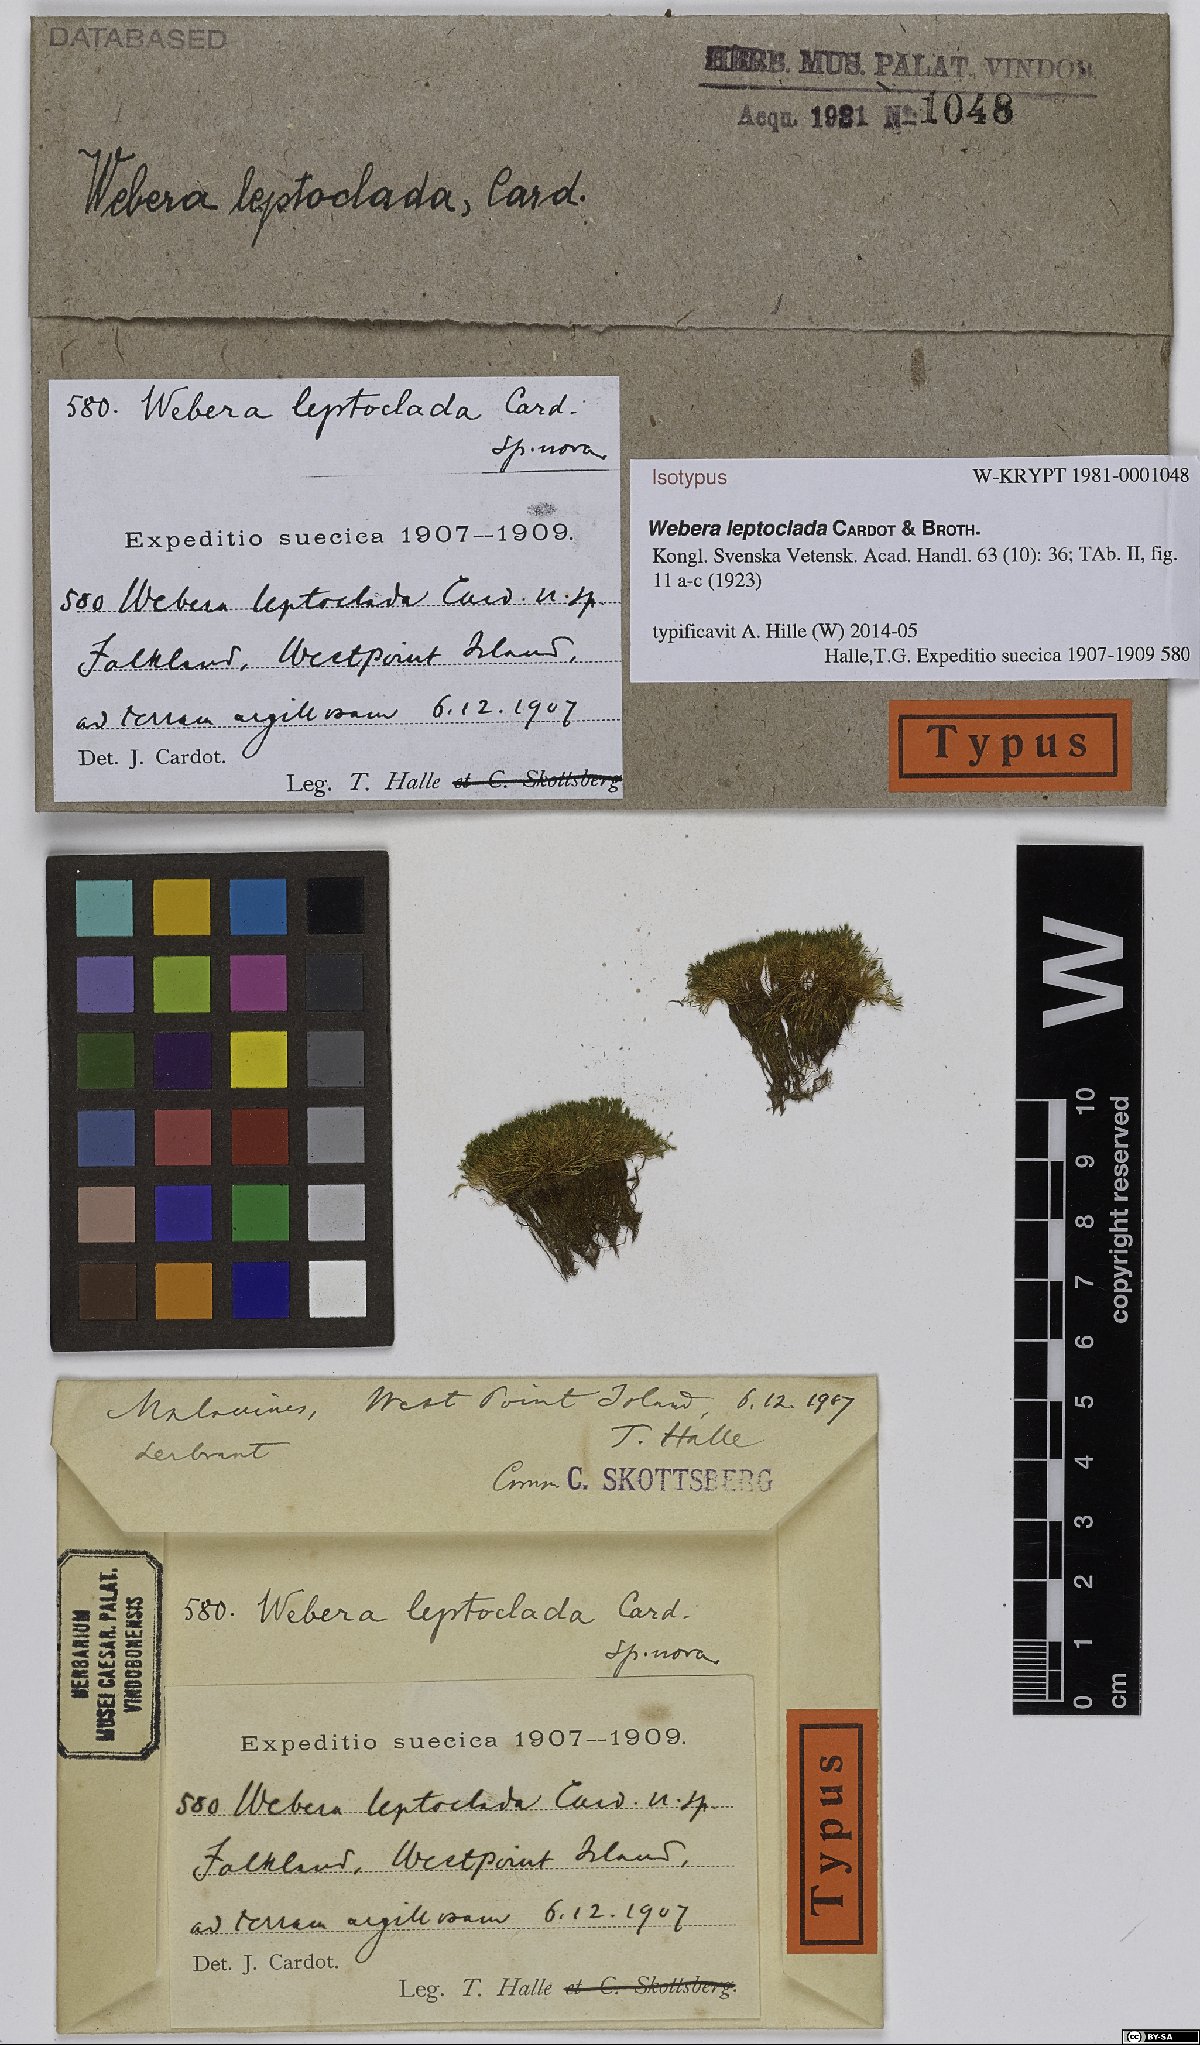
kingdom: Plantae
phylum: Bryophyta
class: Bryopsida
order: Bryales
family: Mniaceae
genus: Pohlia
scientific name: Pohlia nutans
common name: Nodding thread-moss
